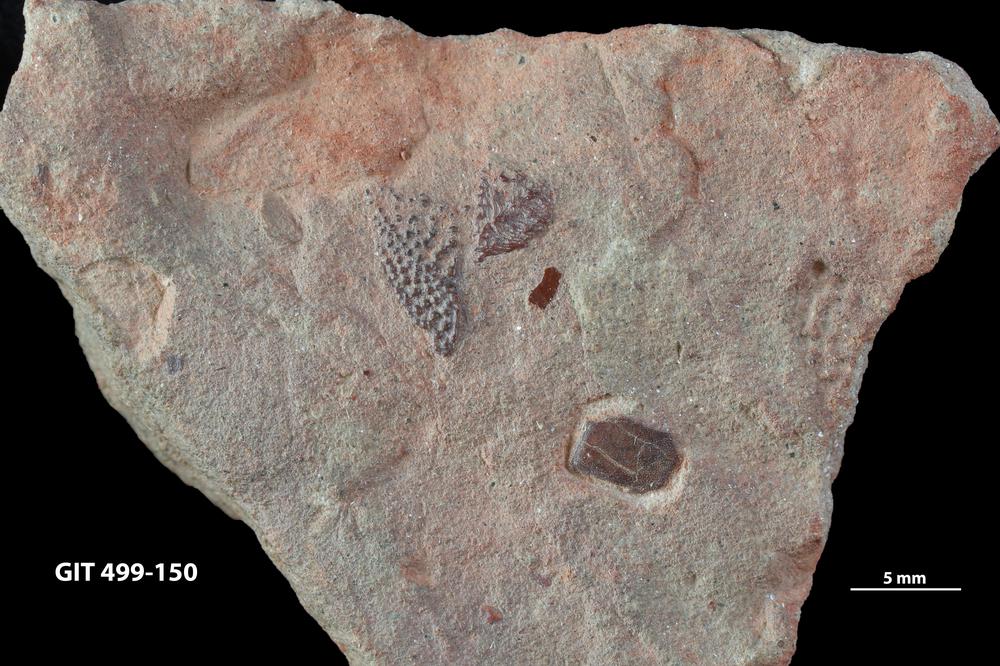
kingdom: Animalia
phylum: Chordata
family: Osteolepididae
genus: Osteolepis
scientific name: Osteolepis
